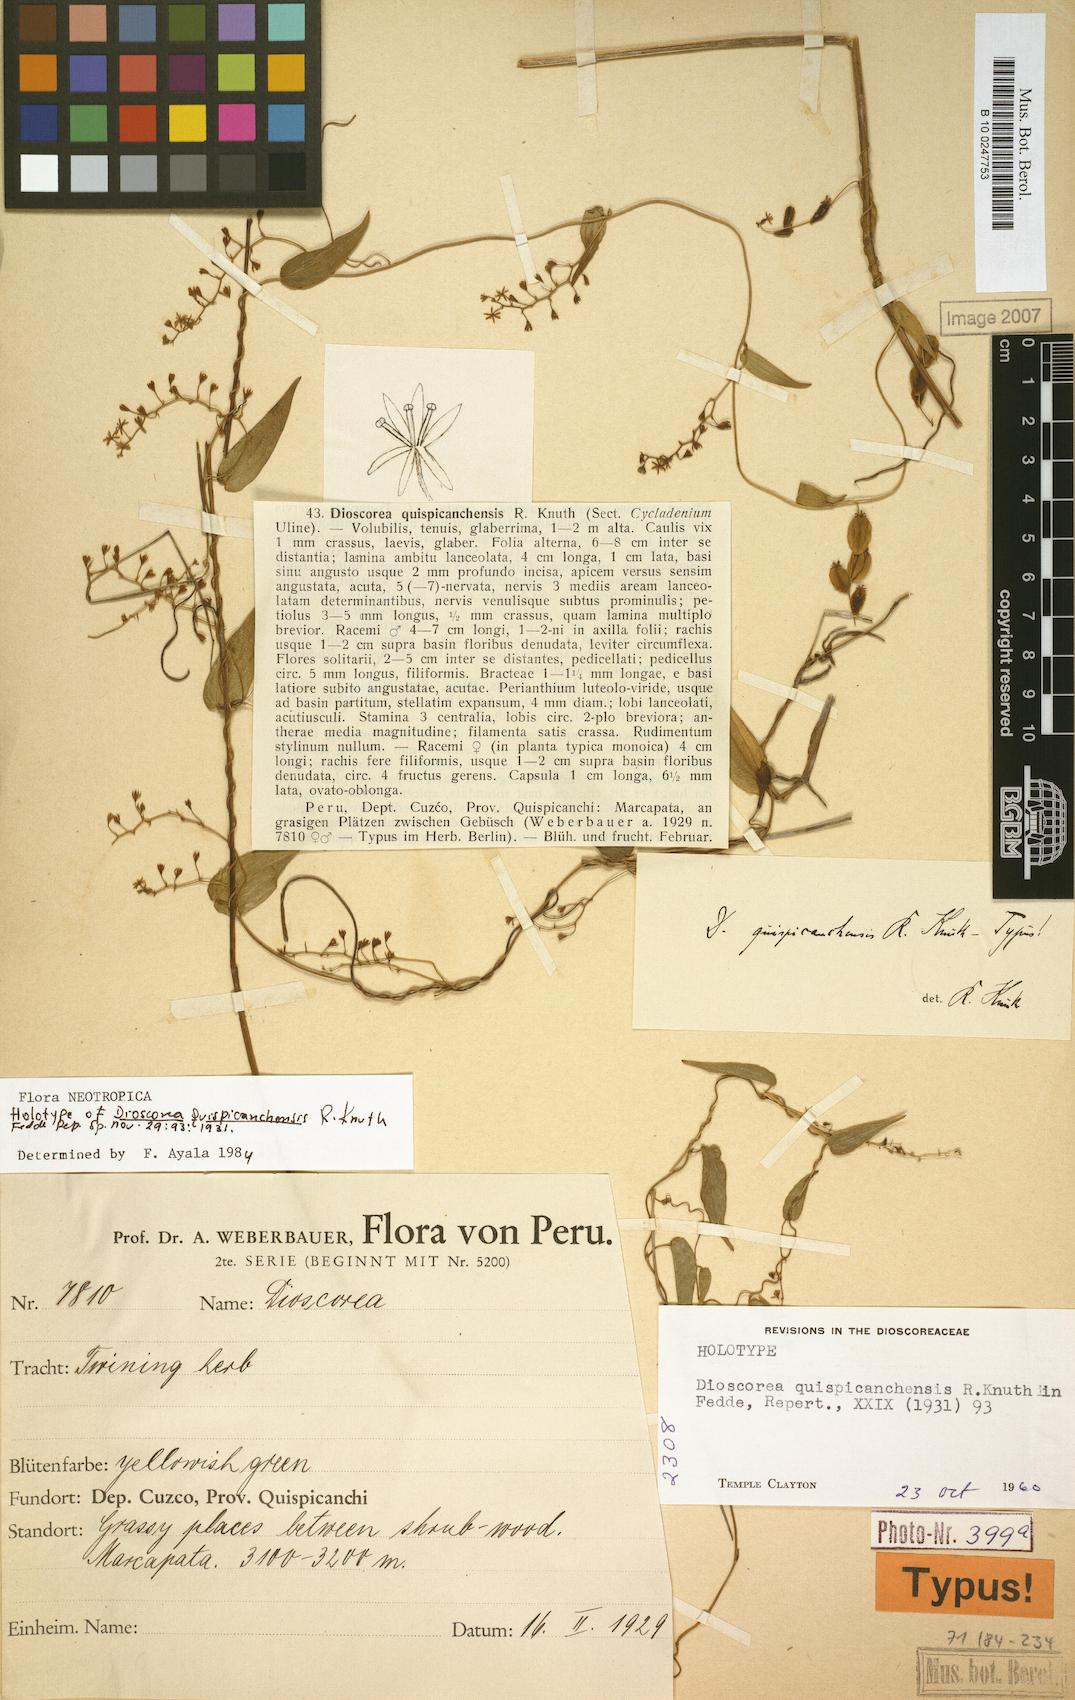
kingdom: Plantae
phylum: Tracheophyta
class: Liliopsida
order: Dioscoreales
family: Dioscoreaceae
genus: Dioscorea
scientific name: Dioscorea quispicanchensis
